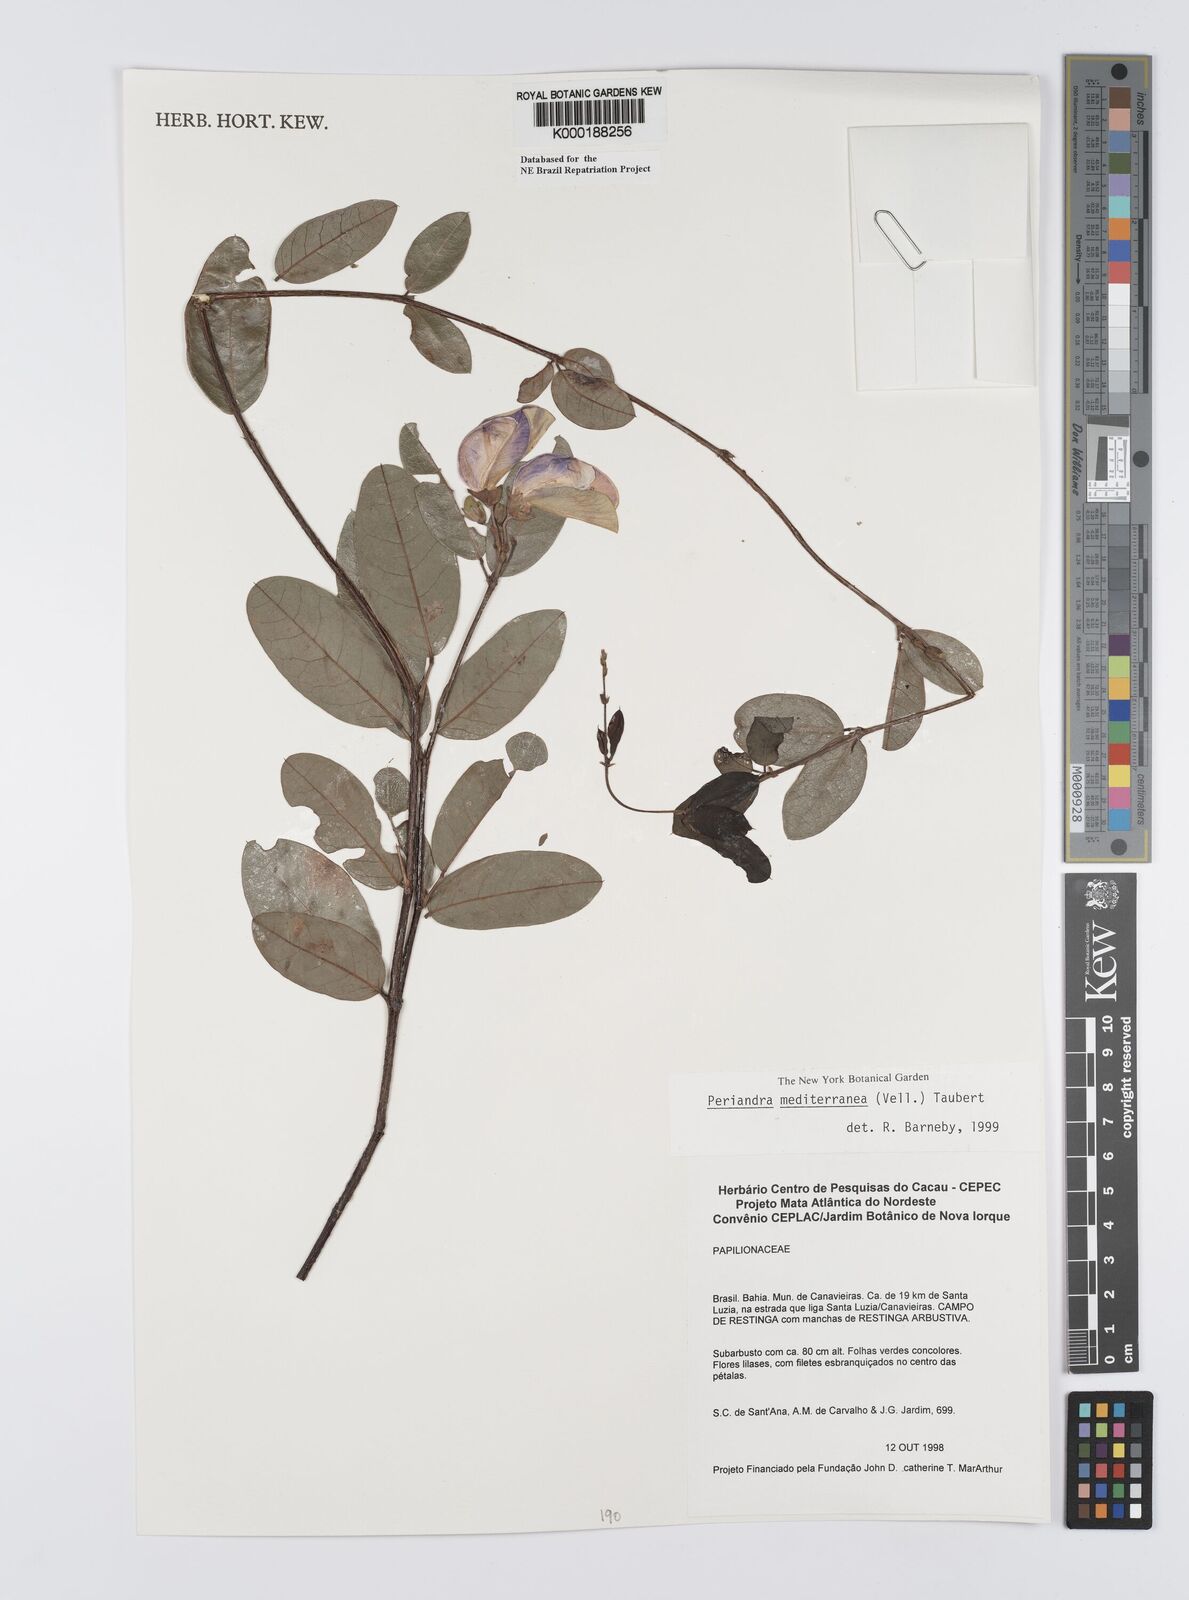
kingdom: Plantae
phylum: Tracheophyta
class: Magnoliopsida
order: Fabales
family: Fabaceae
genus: Periandra
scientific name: Periandra mediterranea
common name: Brazilian licorice
